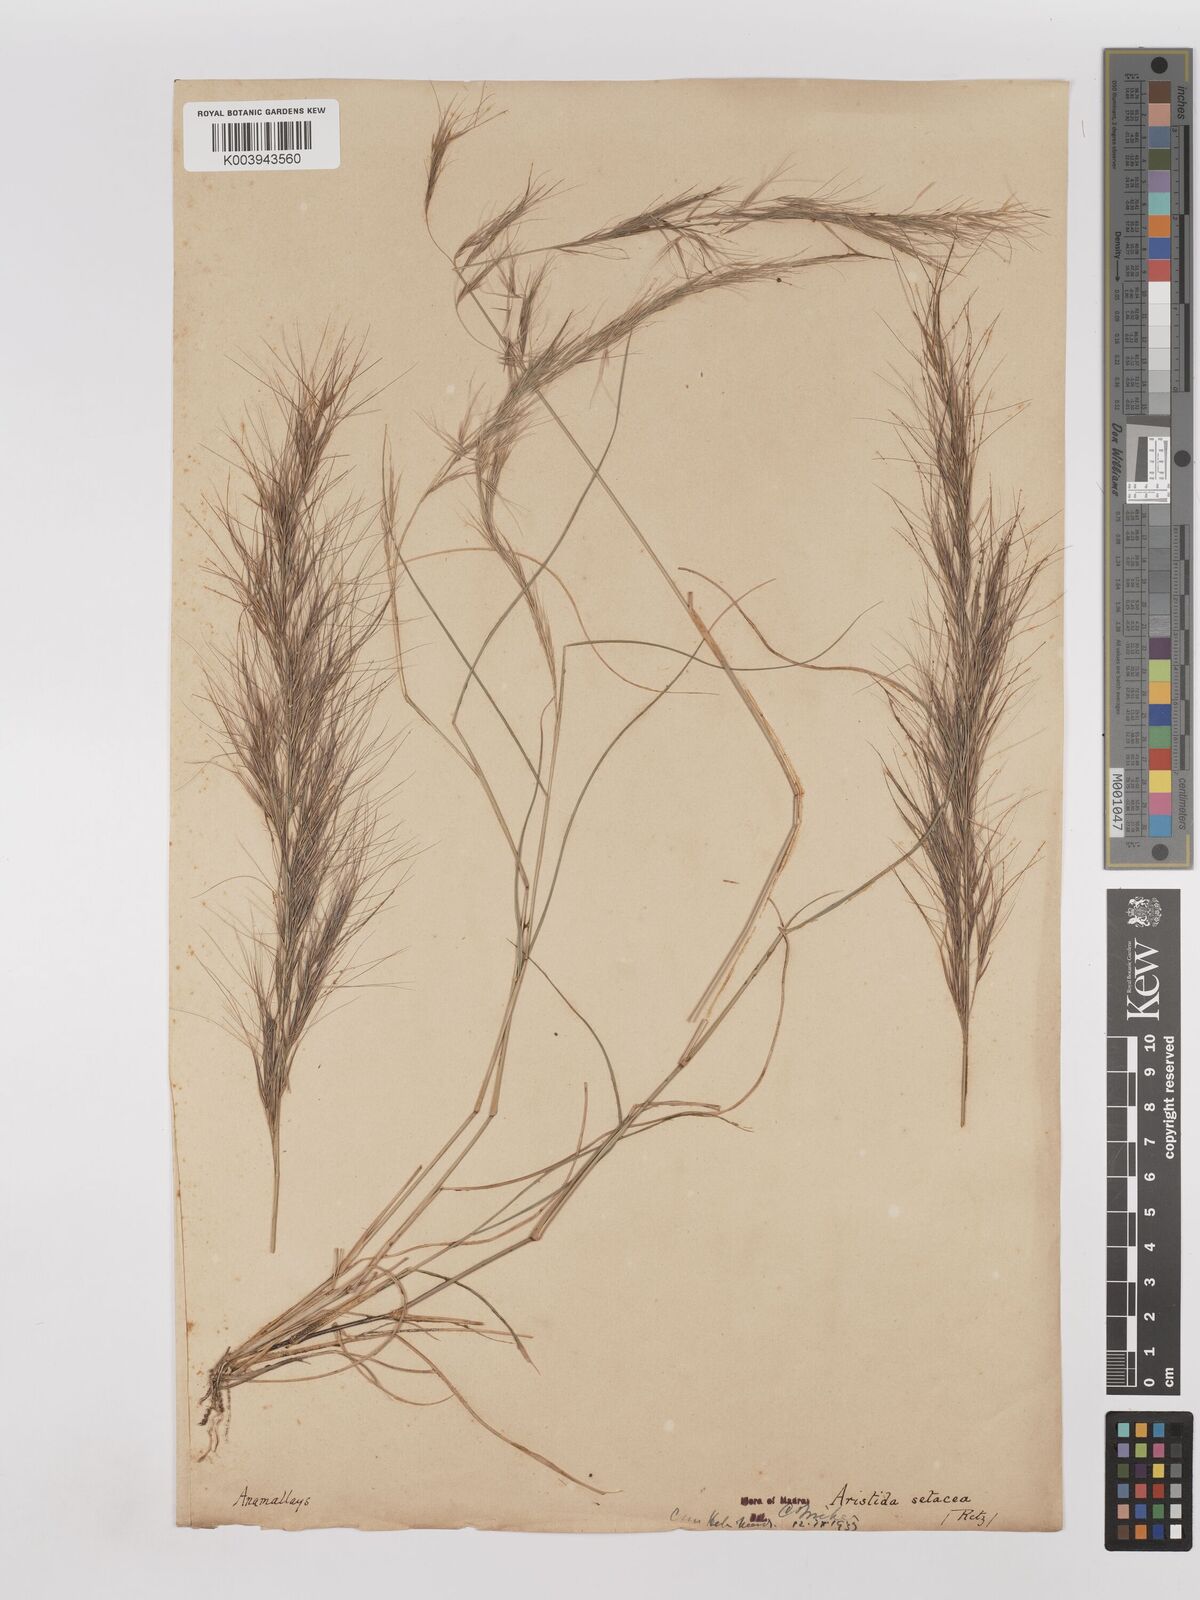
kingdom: Plantae
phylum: Tracheophyta
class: Liliopsida
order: Poales
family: Poaceae
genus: Aristida
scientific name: Aristida setacea
